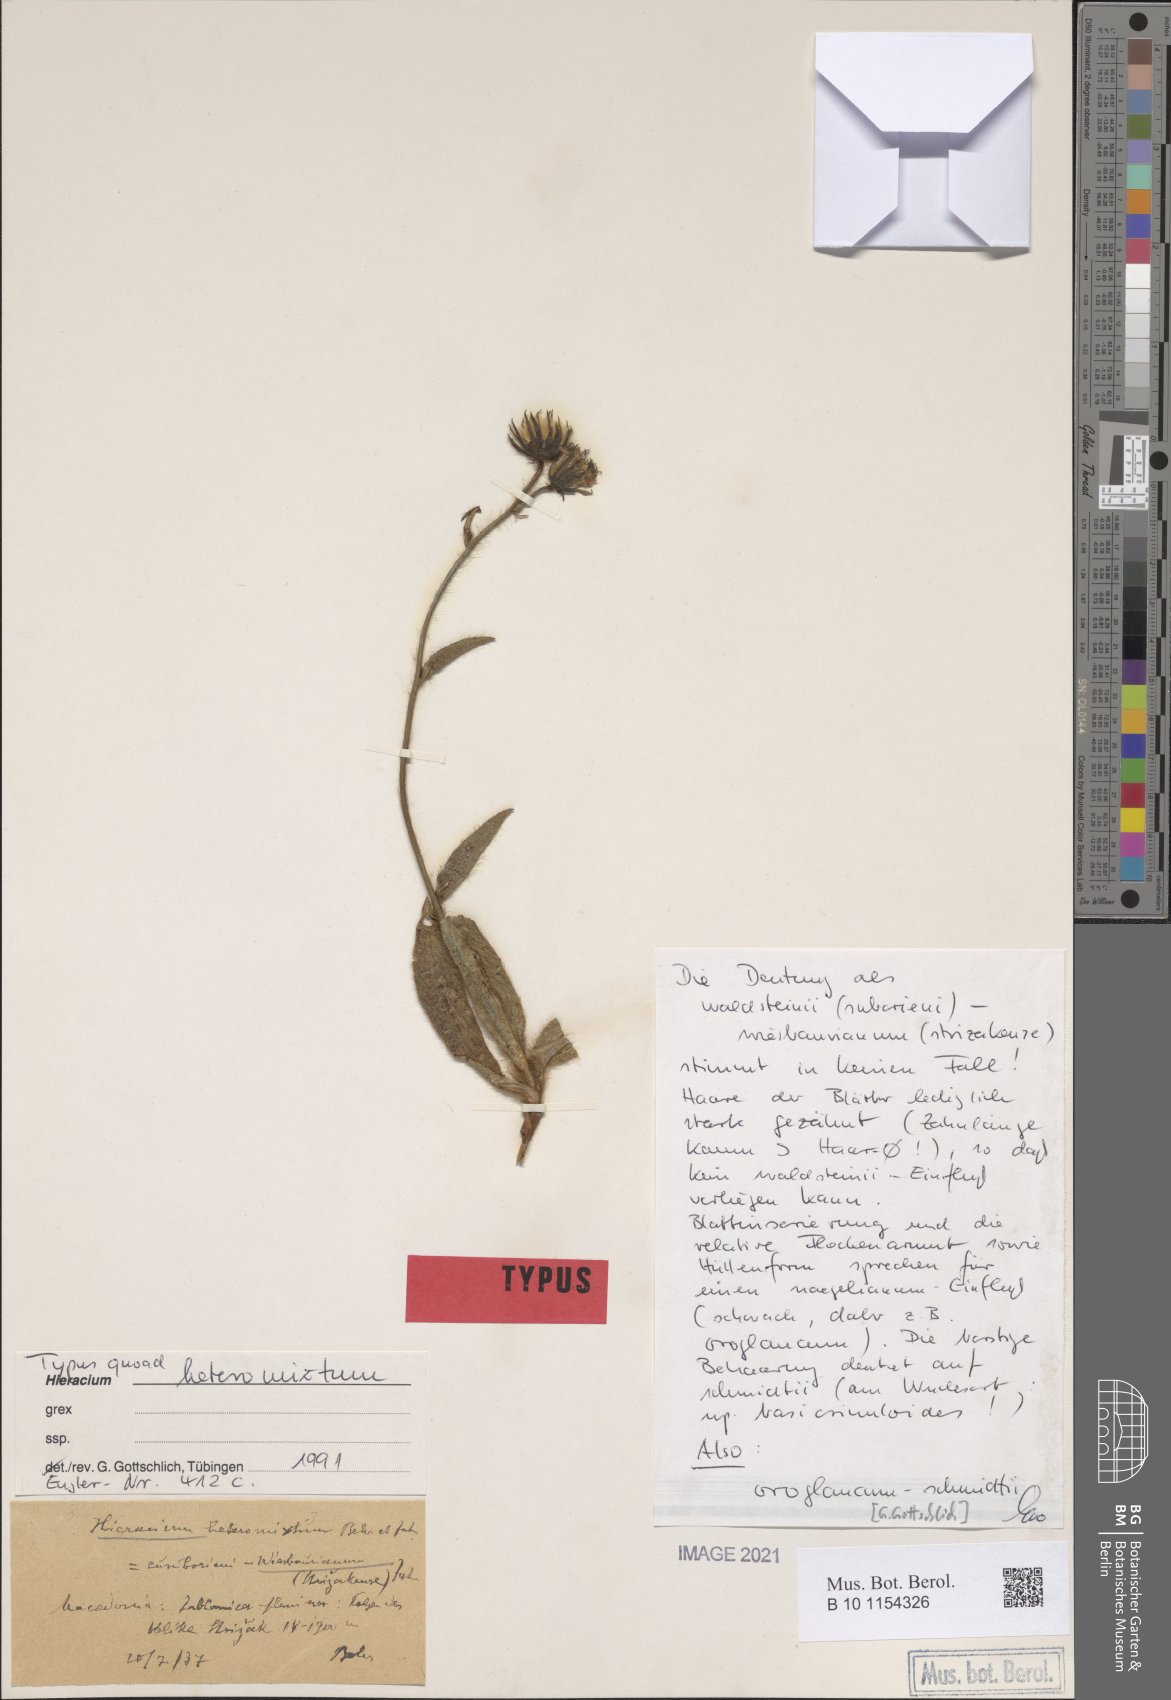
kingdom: Plantae
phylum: Tracheophyta
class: Magnoliopsida
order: Asterales
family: Asteraceae
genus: Hieracium
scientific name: Hieracium heteromixtum
